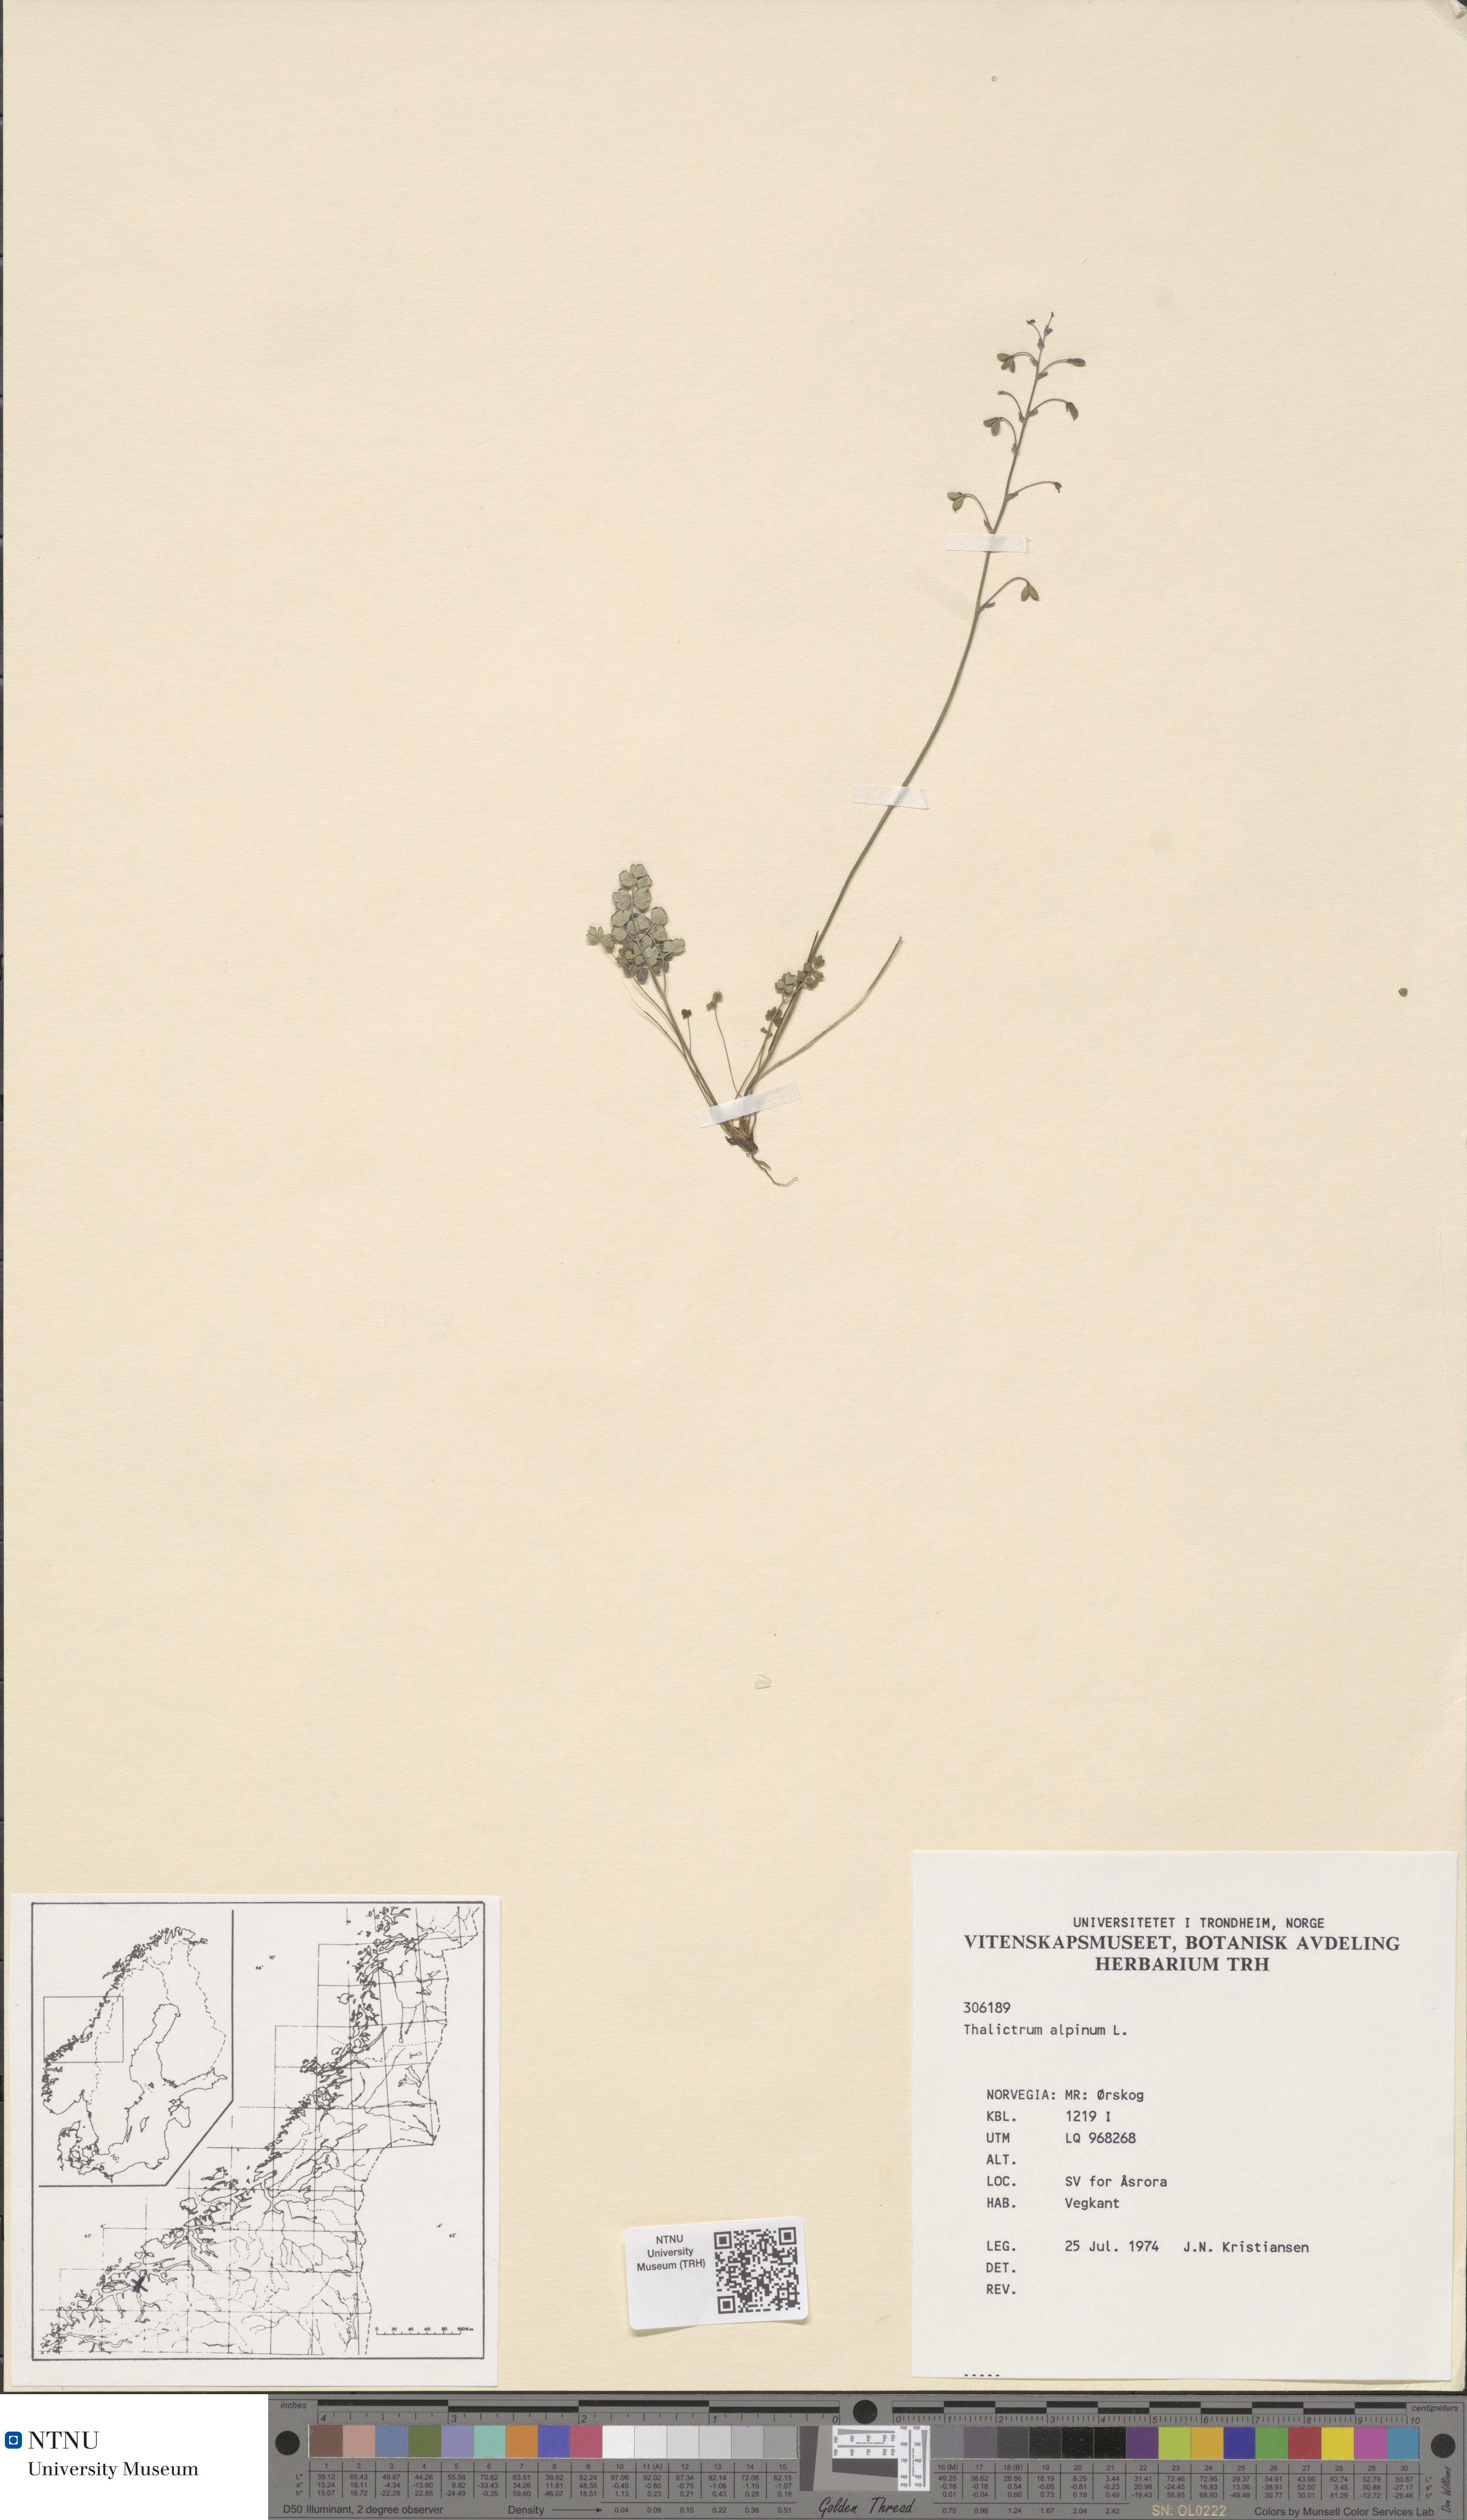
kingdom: Plantae
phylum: Tracheophyta
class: Magnoliopsida
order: Ranunculales
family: Ranunculaceae
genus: Thalictrum
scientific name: Thalictrum alpinum
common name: Alpine meadow-rue
